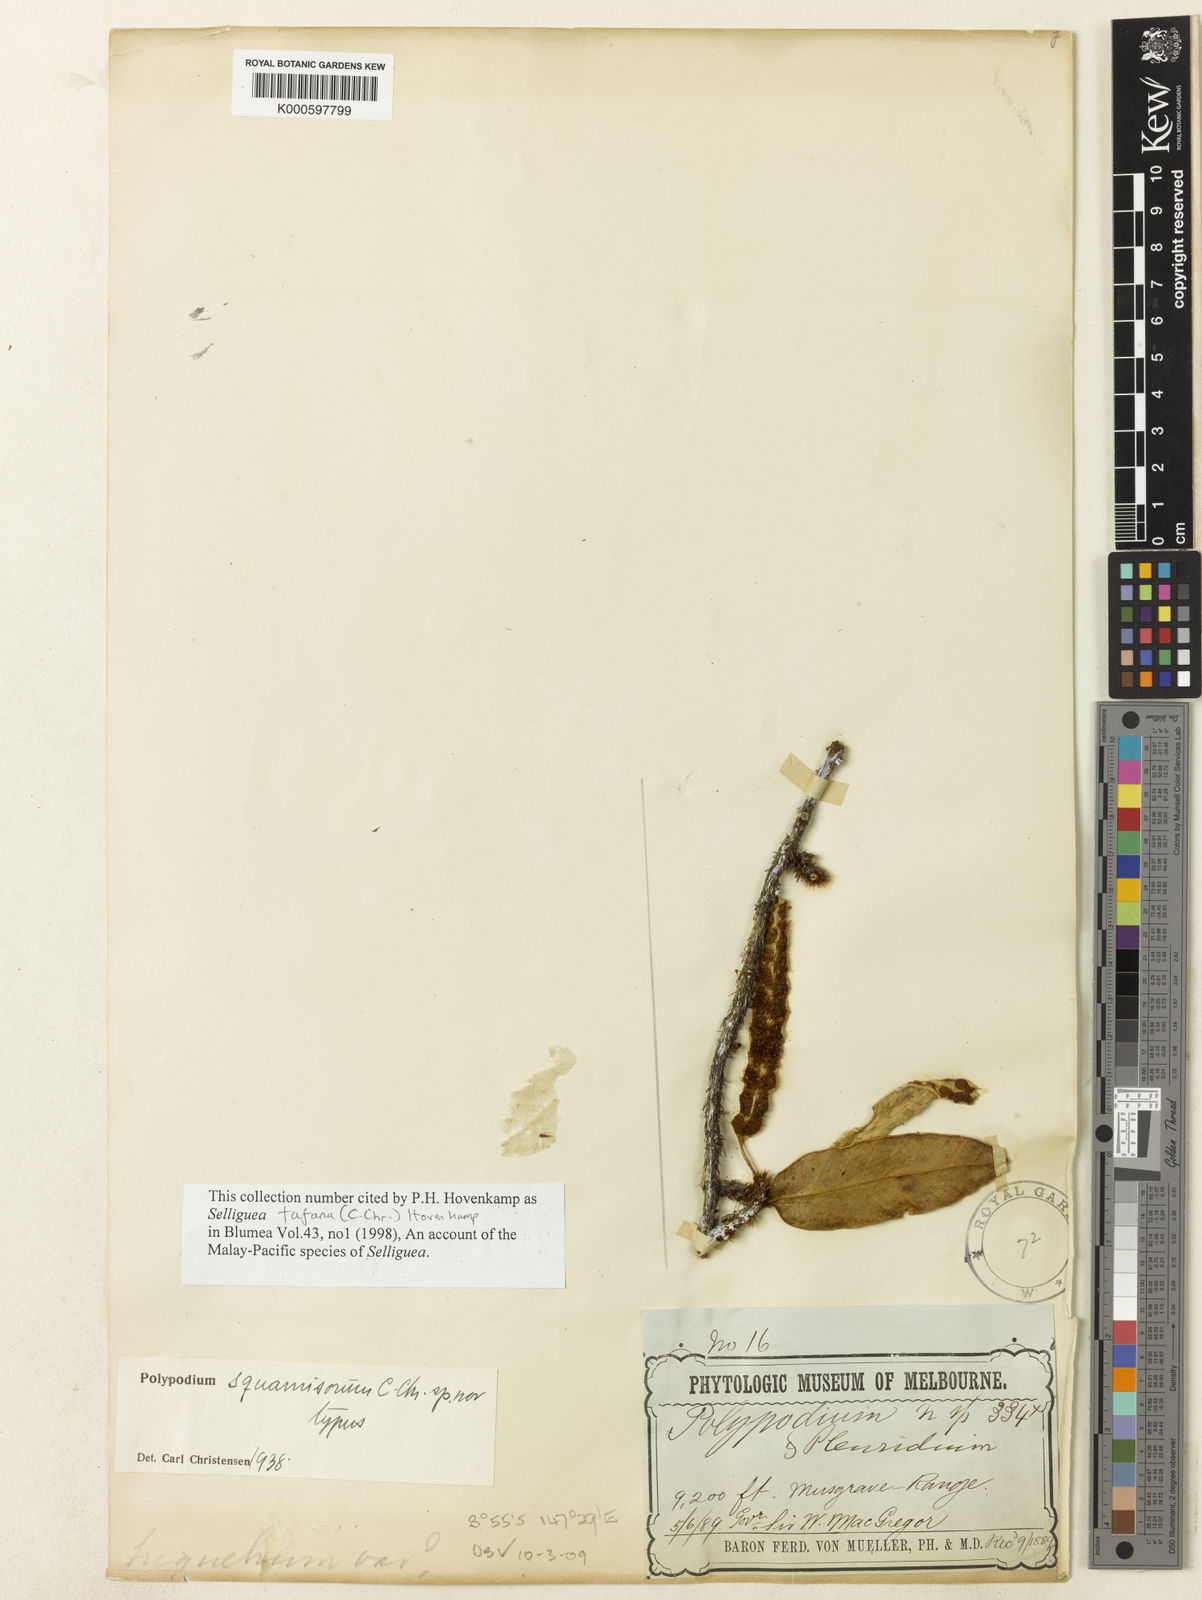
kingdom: Plantae
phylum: Tracheophyta
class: Polypodiopsida
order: Polypodiales
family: Polypodiaceae
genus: Selliguea
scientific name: Selliguea stenophylla
